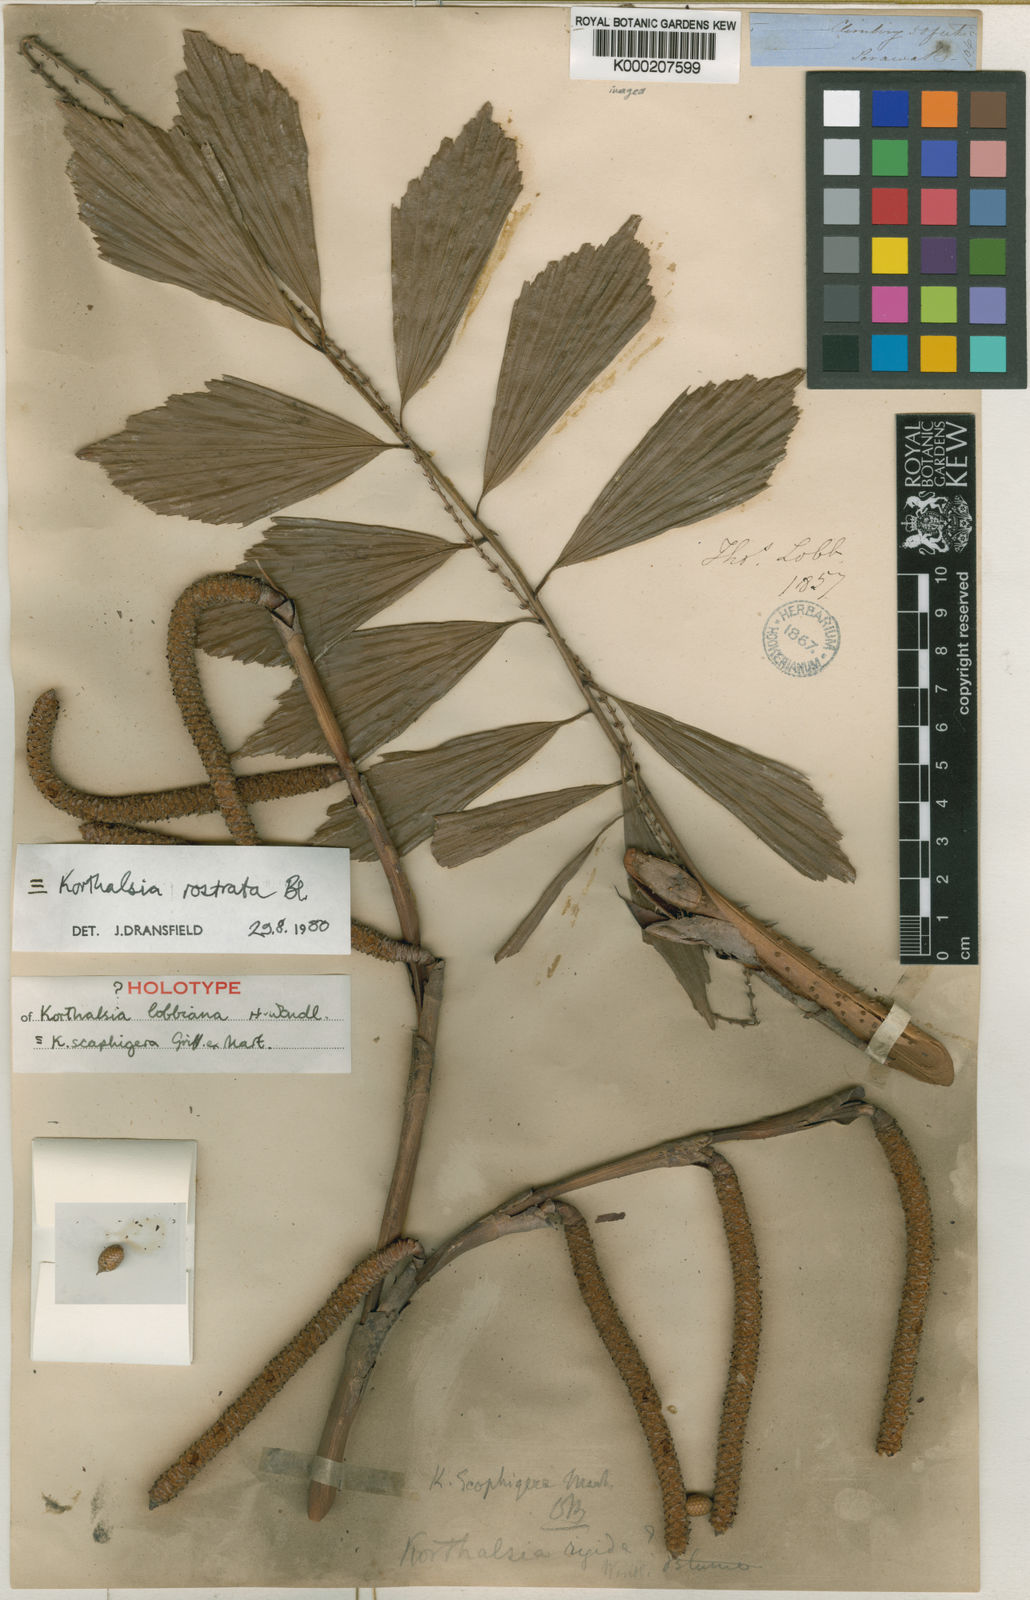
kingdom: Plantae
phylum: Tracheophyta
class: Liliopsida
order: Arecales
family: Arecaceae
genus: Korthalsia
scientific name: Korthalsia rostrata
